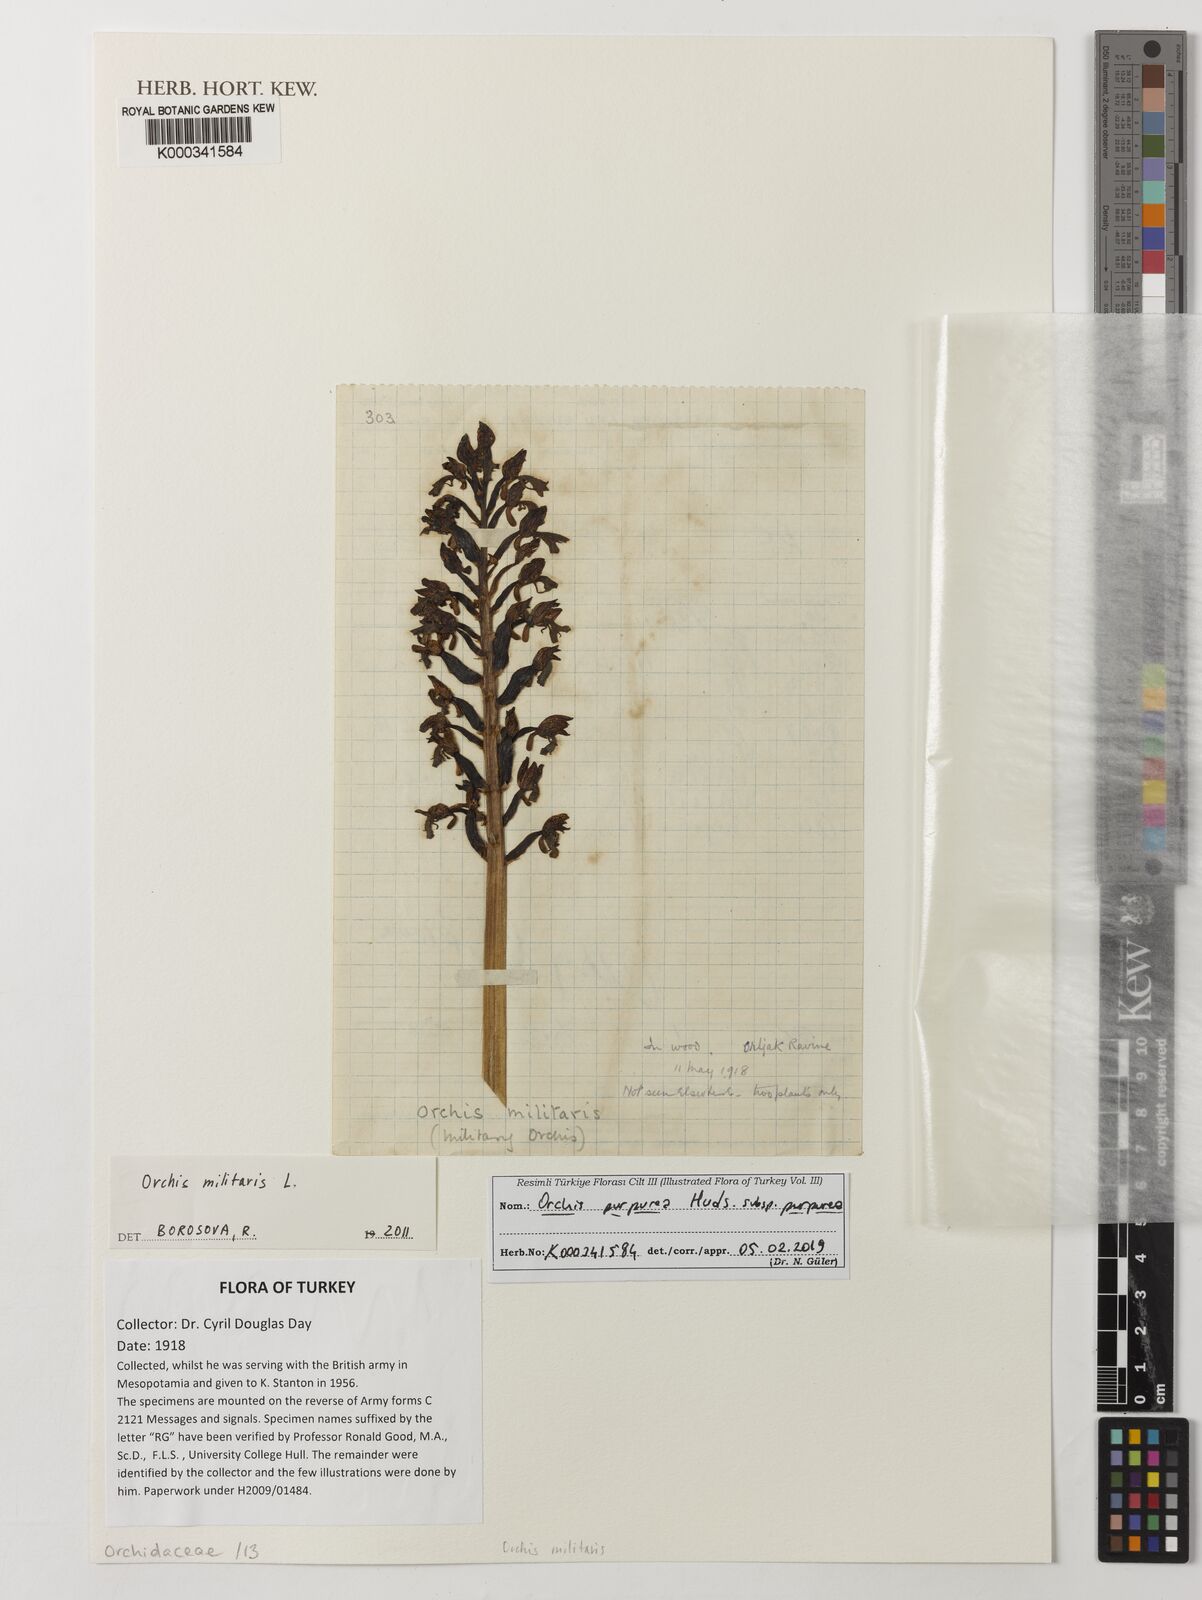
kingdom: Plantae
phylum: Tracheophyta
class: Liliopsida
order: Asparagales
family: Orchidaceae
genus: Orchis
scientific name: Orchis militaris
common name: Military orchid
